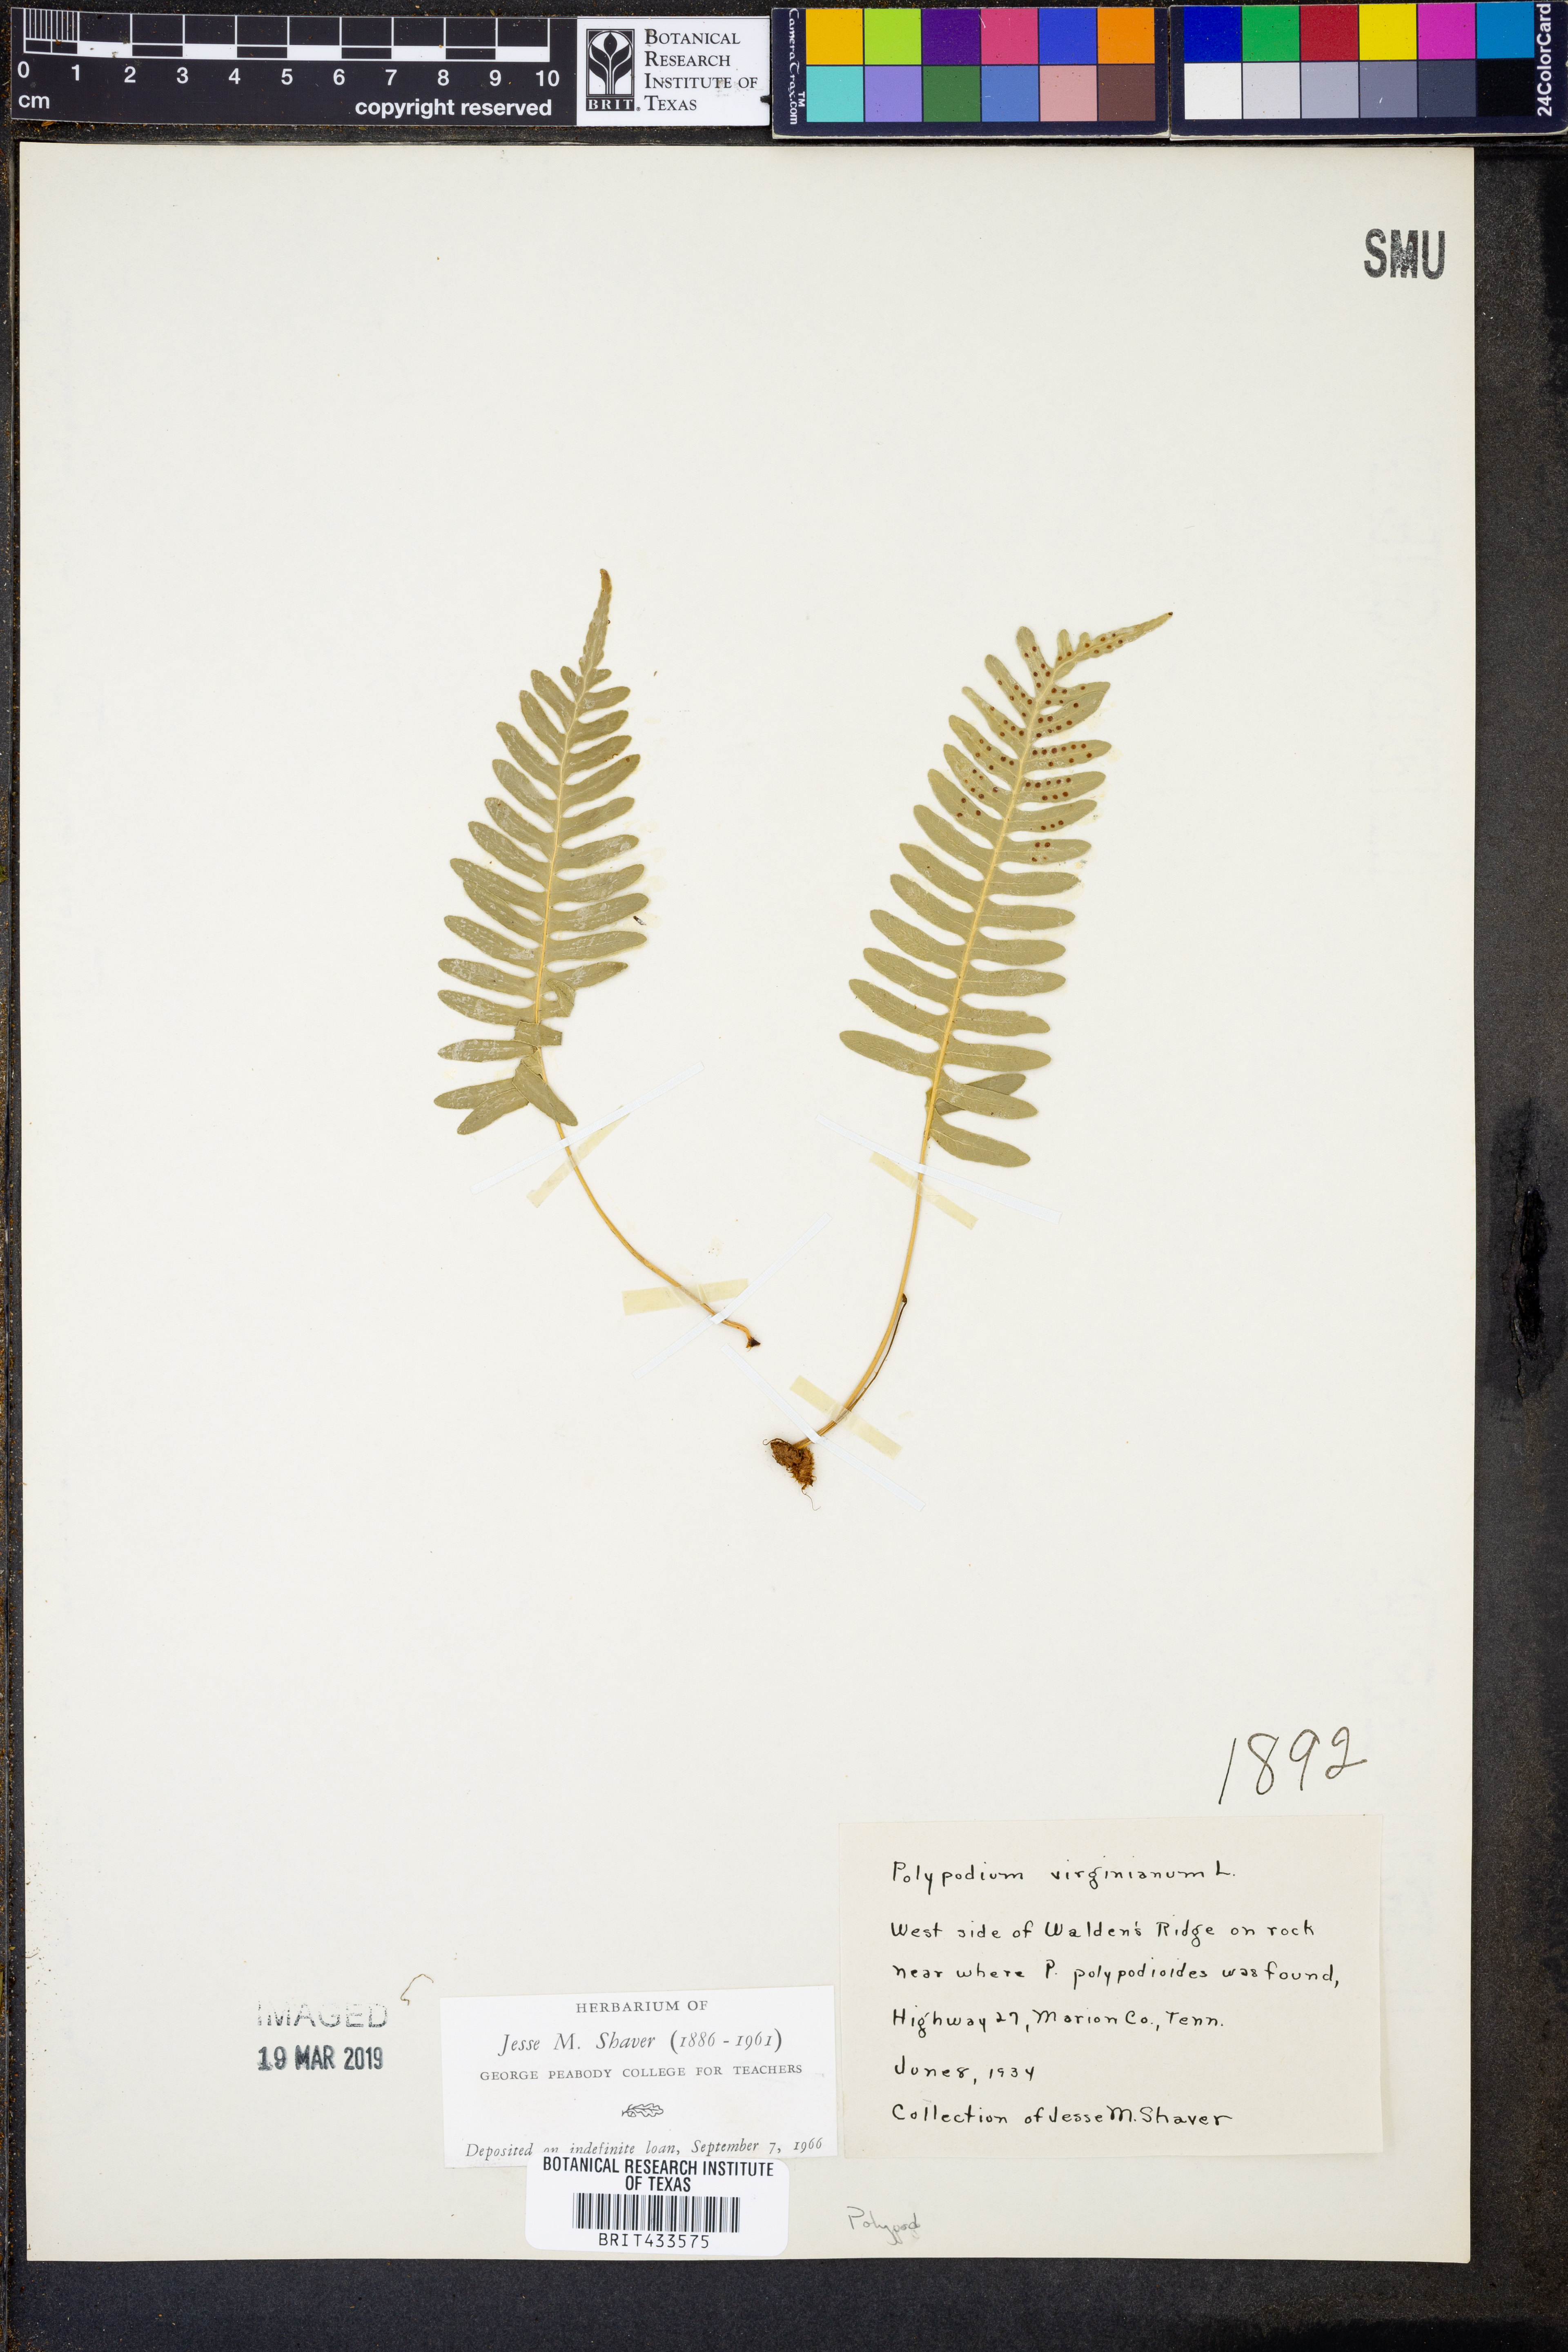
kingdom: Plantae
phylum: Tracheophyta
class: Polypodiopsida
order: Polypodiales
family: Polypodiaceae
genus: Polypodium
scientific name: Polypodium virginianum
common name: American wall fern
